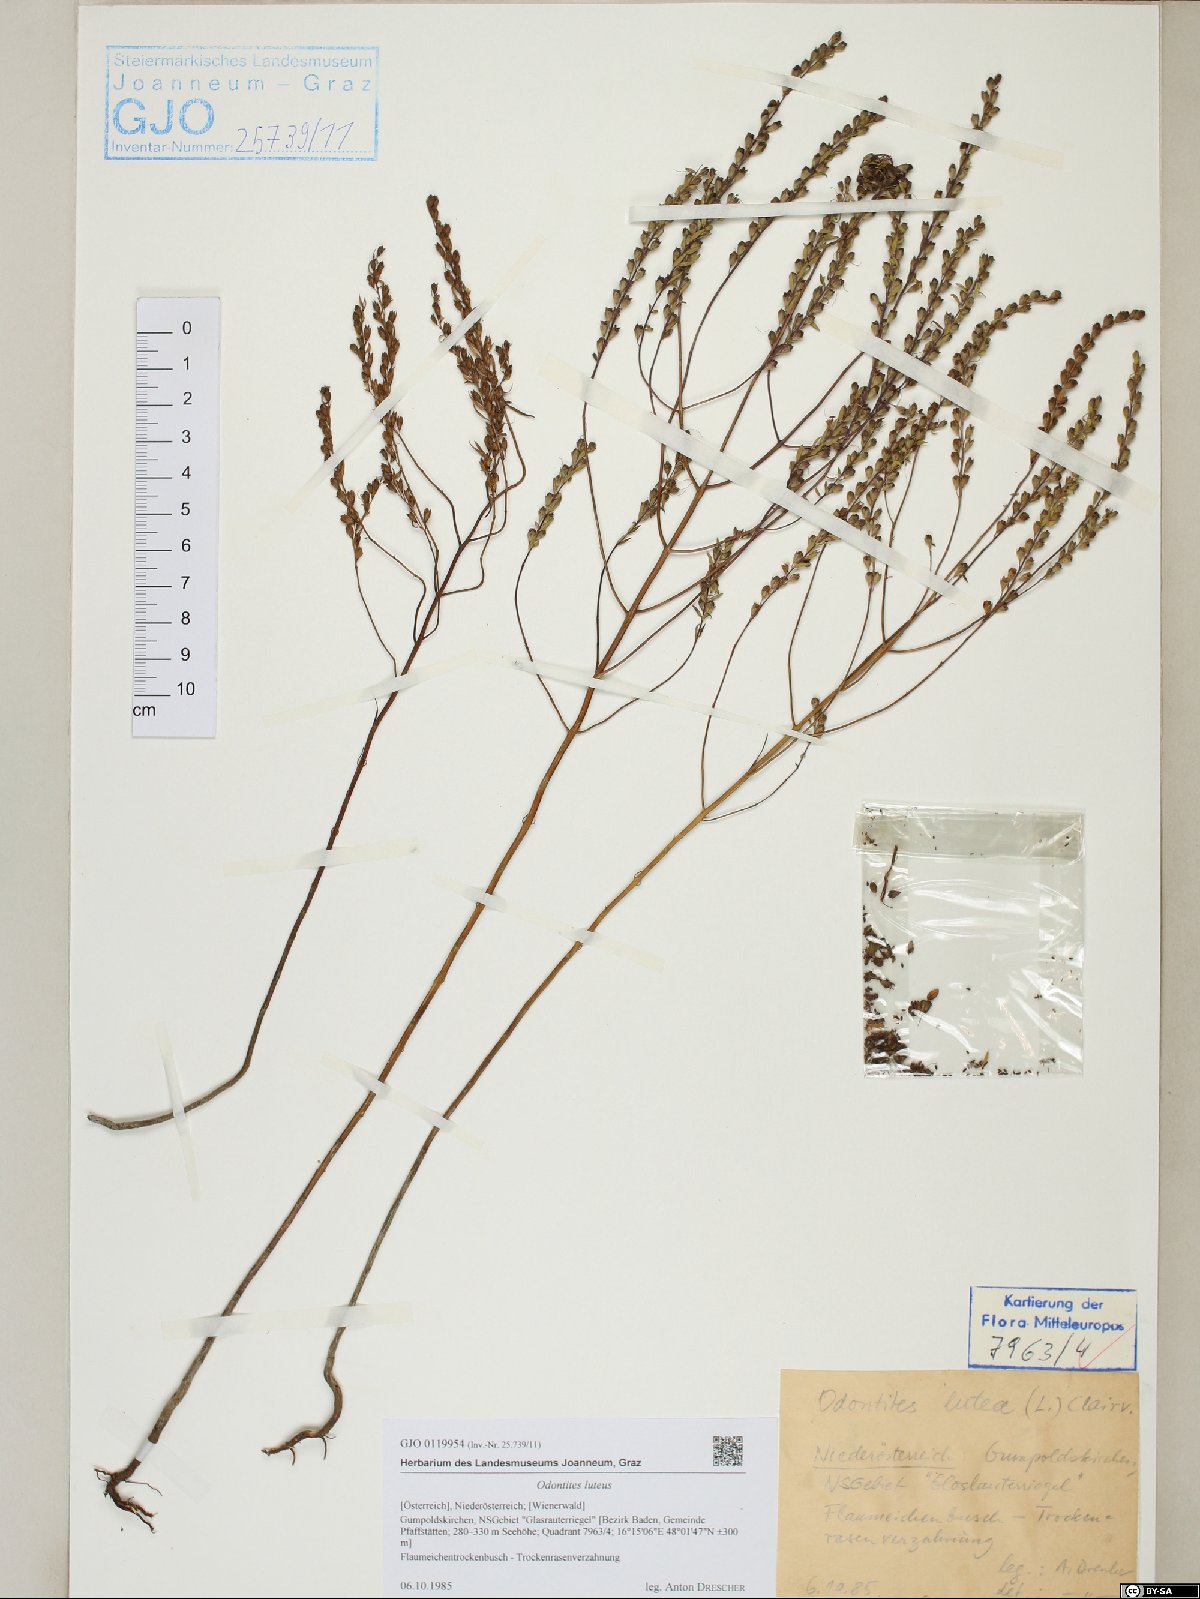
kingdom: Plantae
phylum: Tracheophyta
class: Magnoliopsida
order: Lamiales
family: Orobanchaceae
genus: Odontites
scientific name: Odontites luteus
